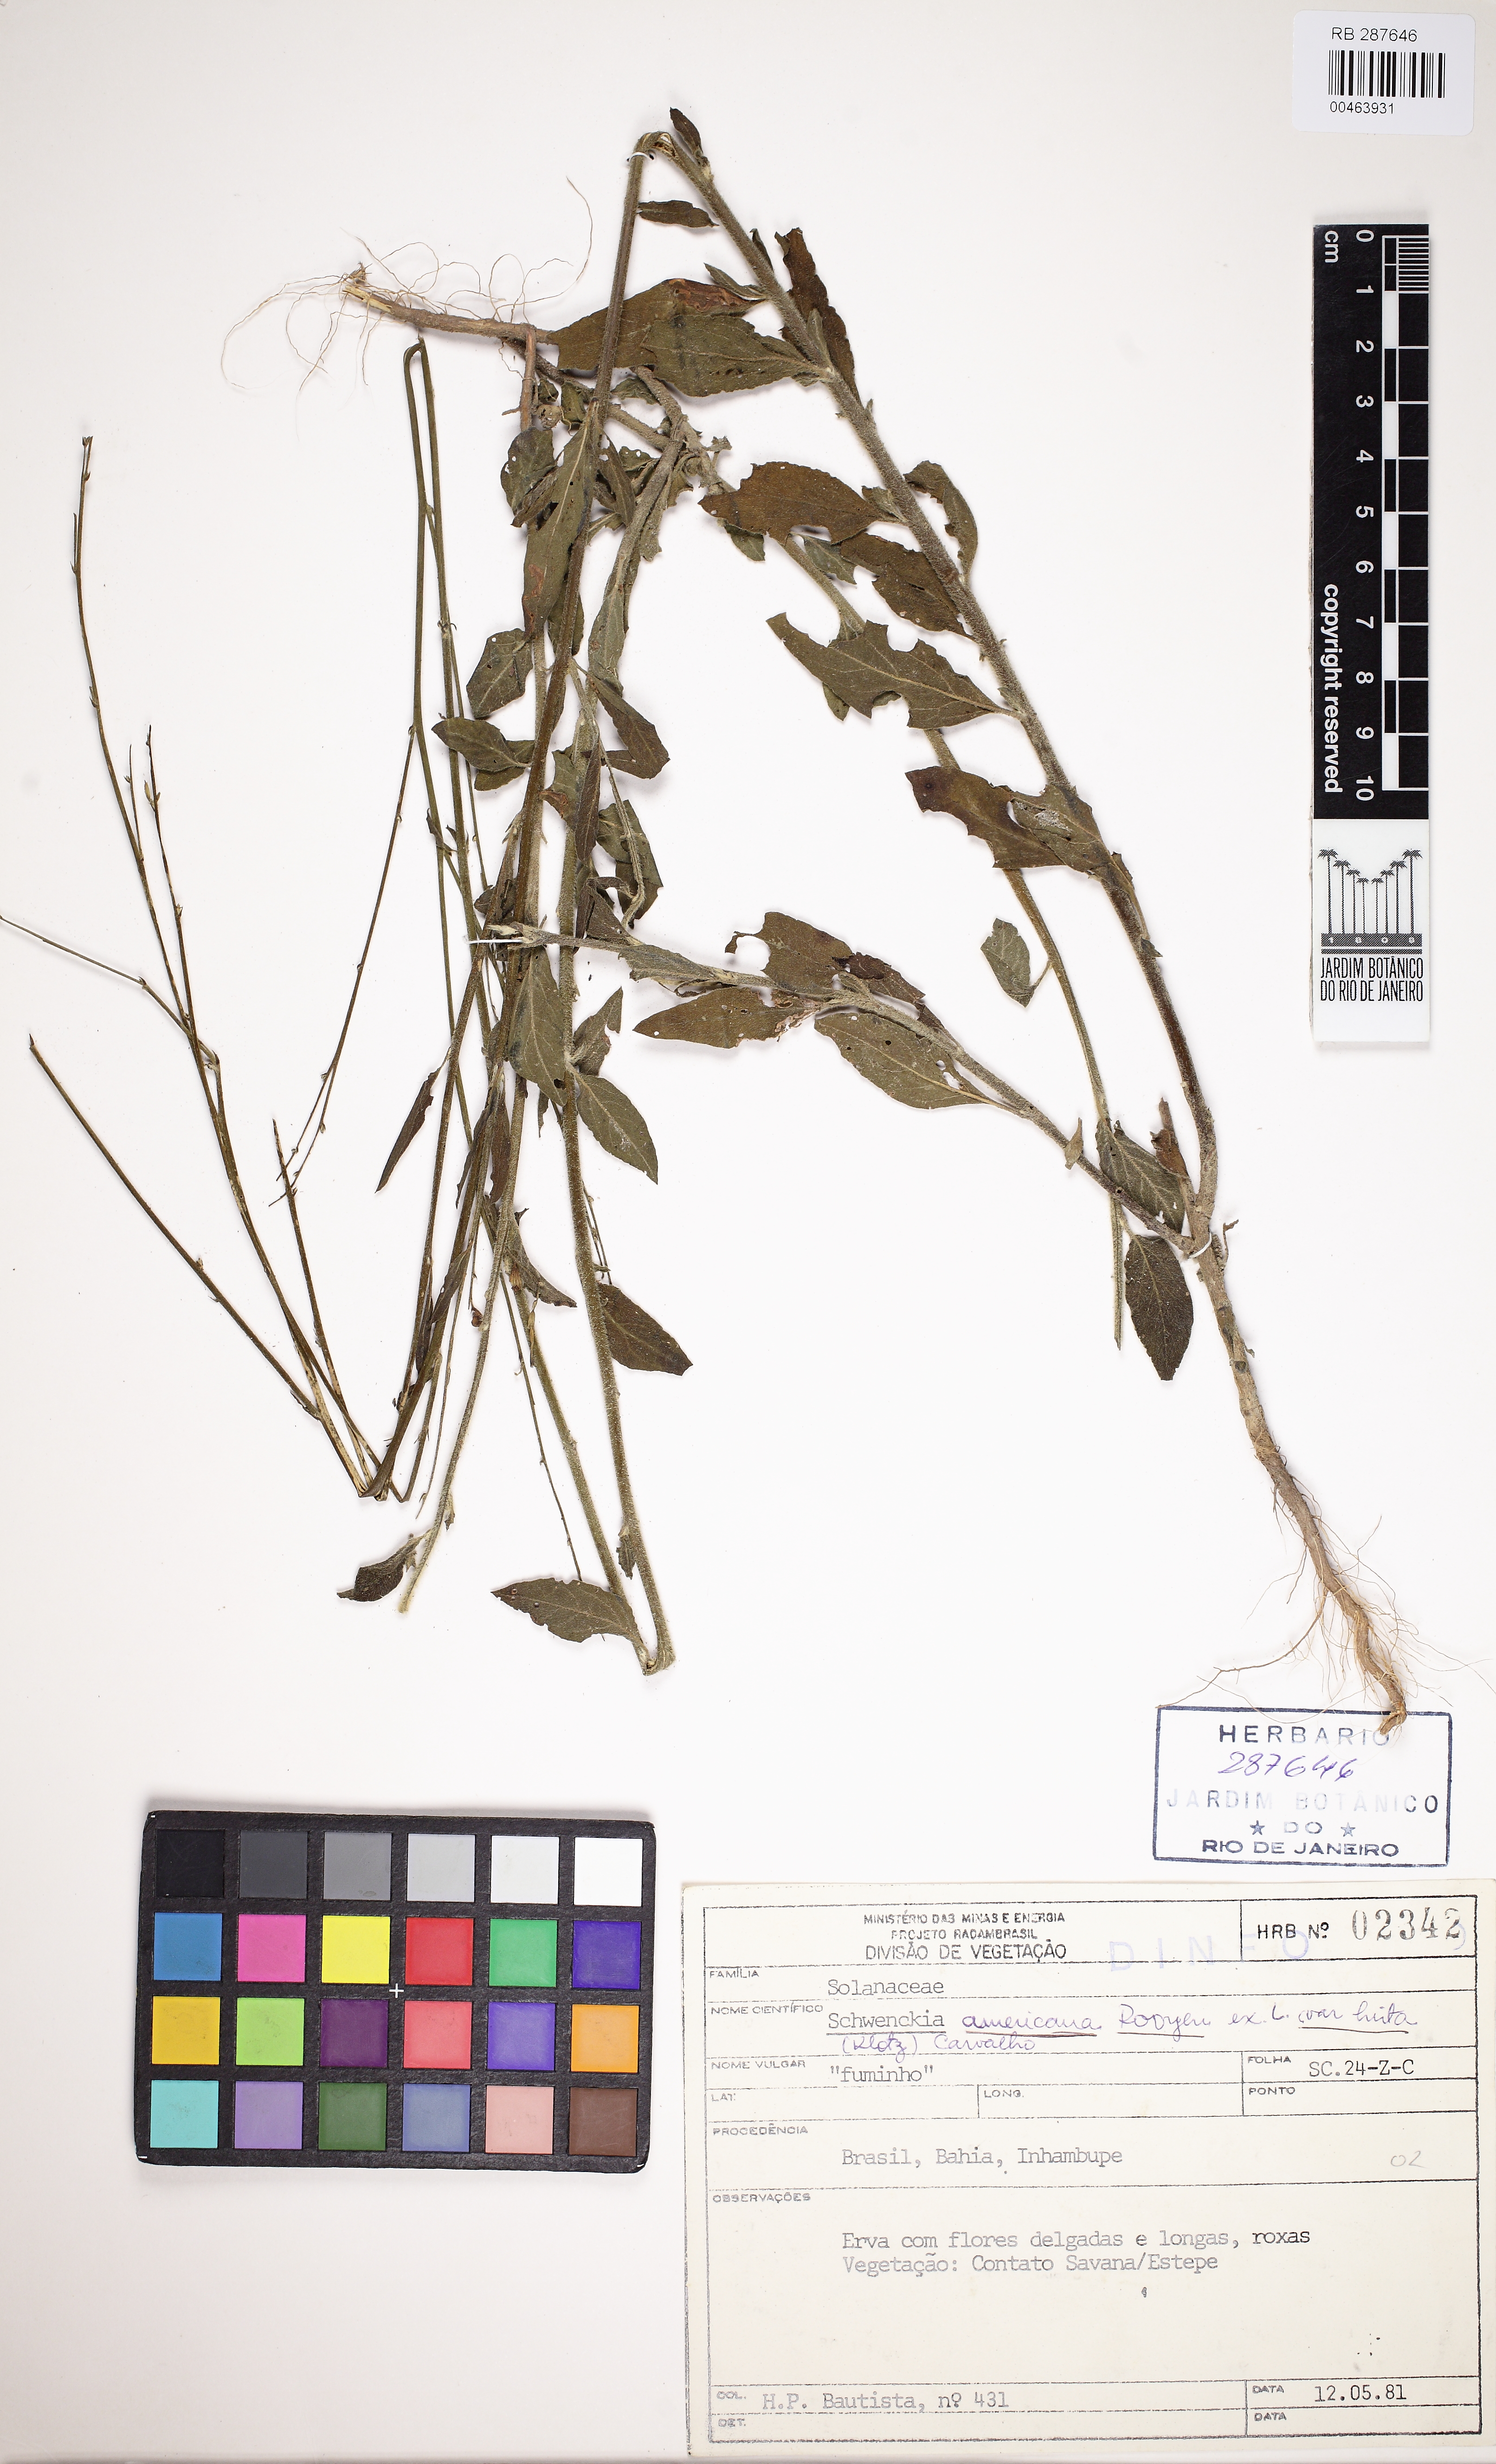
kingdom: Plantae
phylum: Tracheophyta
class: Magnoliopsida
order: Solanales
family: Solanaceae
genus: Schwenckia
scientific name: Schwenckia americana
